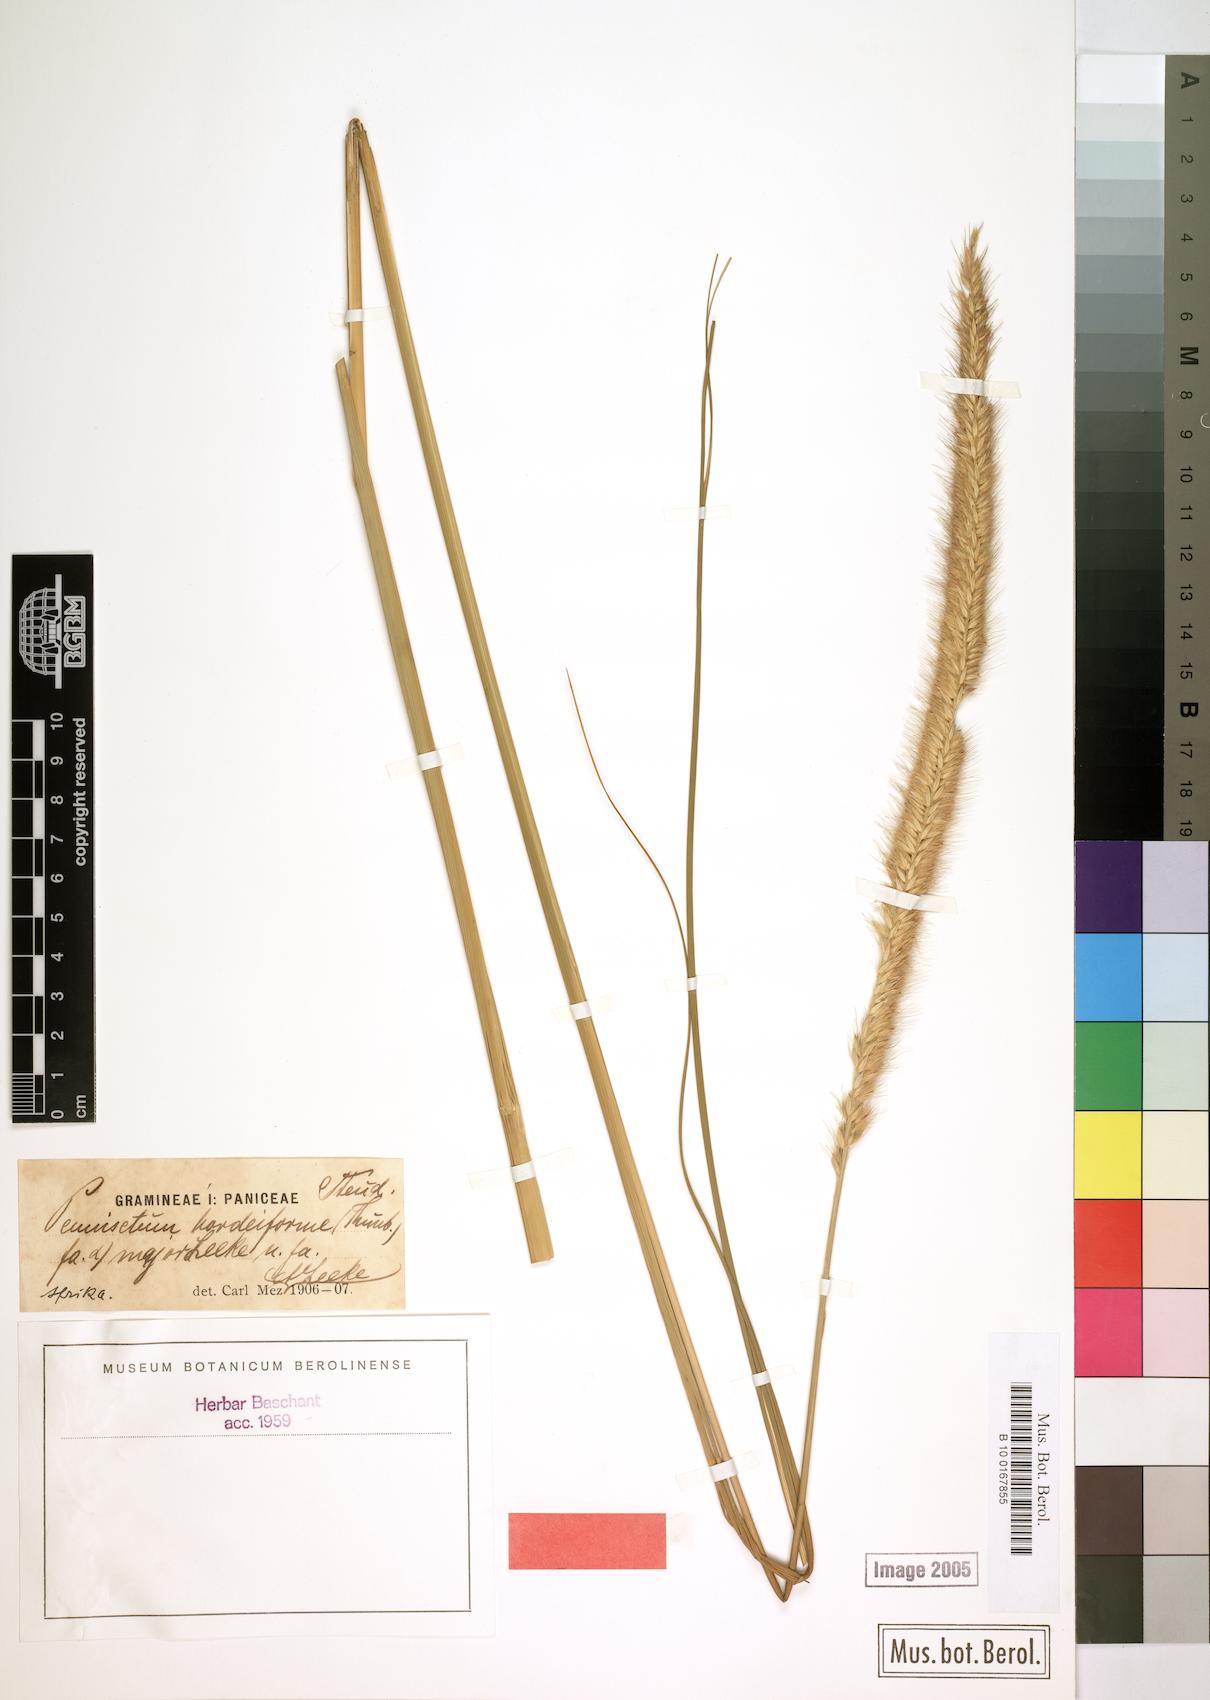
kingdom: Plantae
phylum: Tracheophyta
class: Liliopsida
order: Poales
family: Poaceae
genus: Cenchrus
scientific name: Cenchrus alopecuroides
